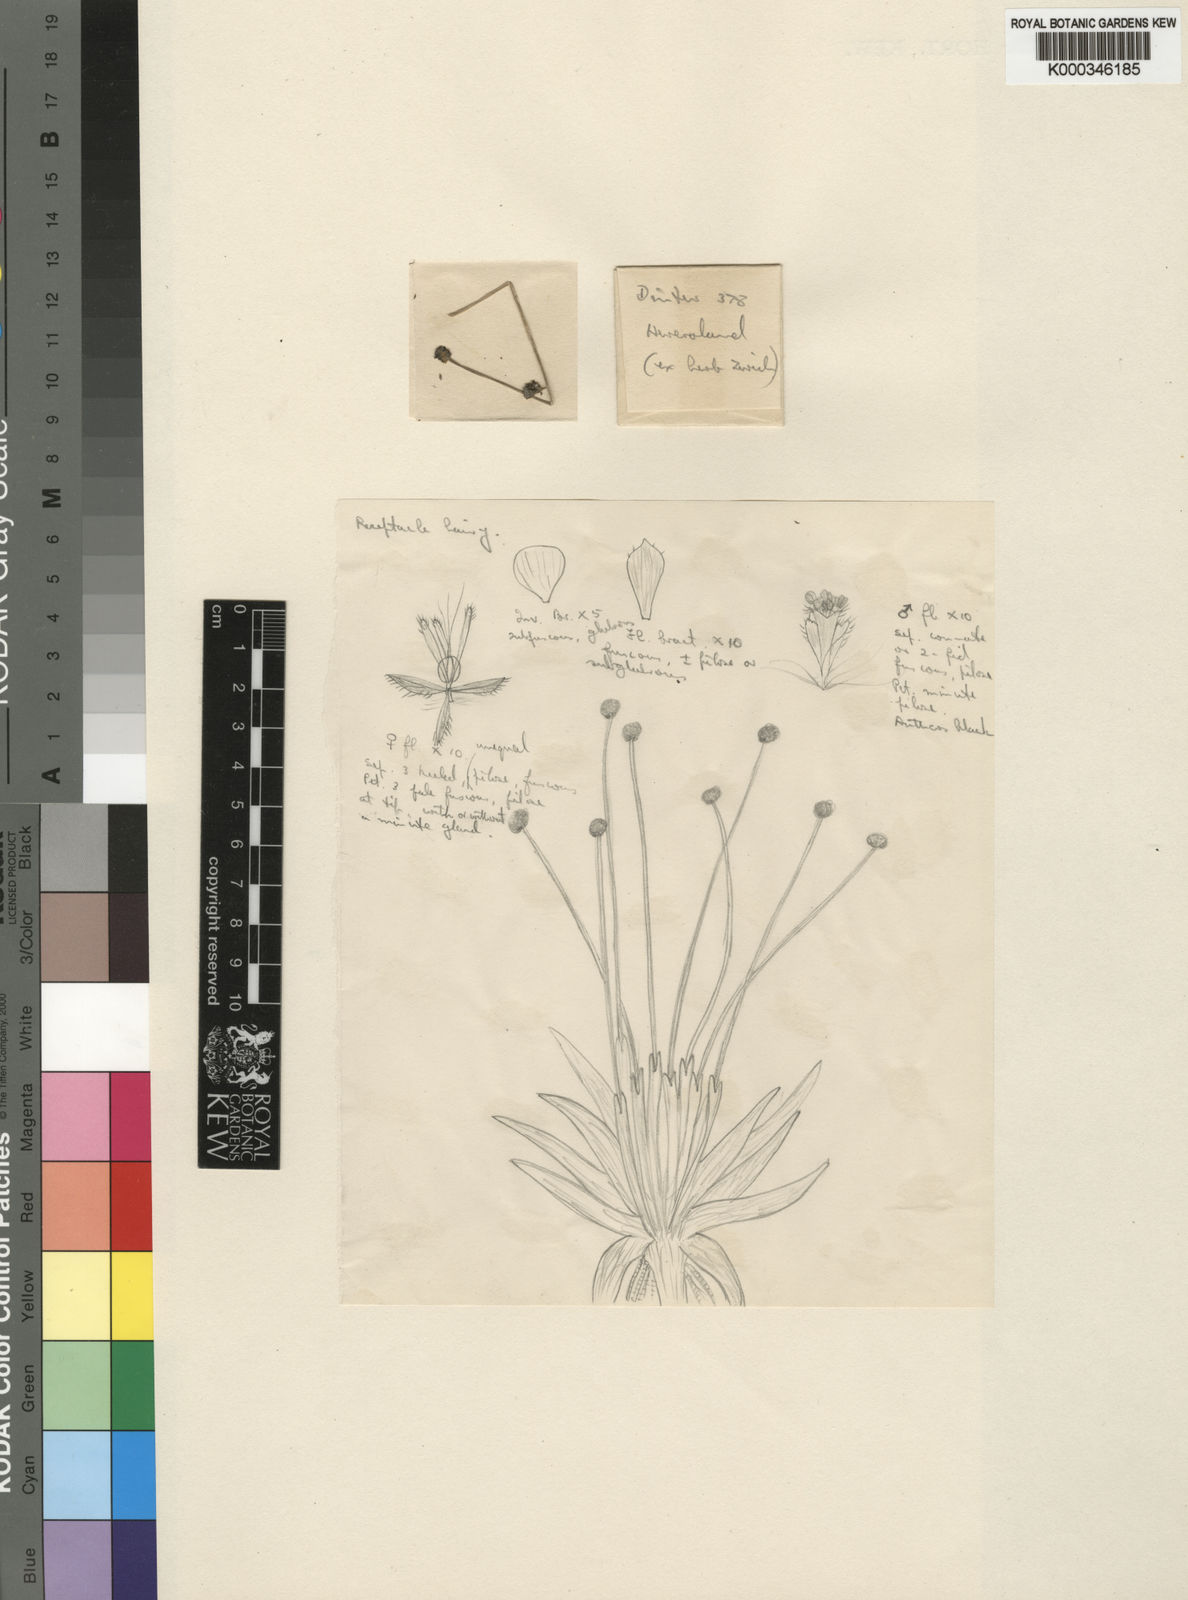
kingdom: Plantae
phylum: Tracheophyta
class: Liliopsida
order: Poales
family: Eriocaulaceae
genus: Eriocaulon
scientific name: Eriocaulon transvaalicum
